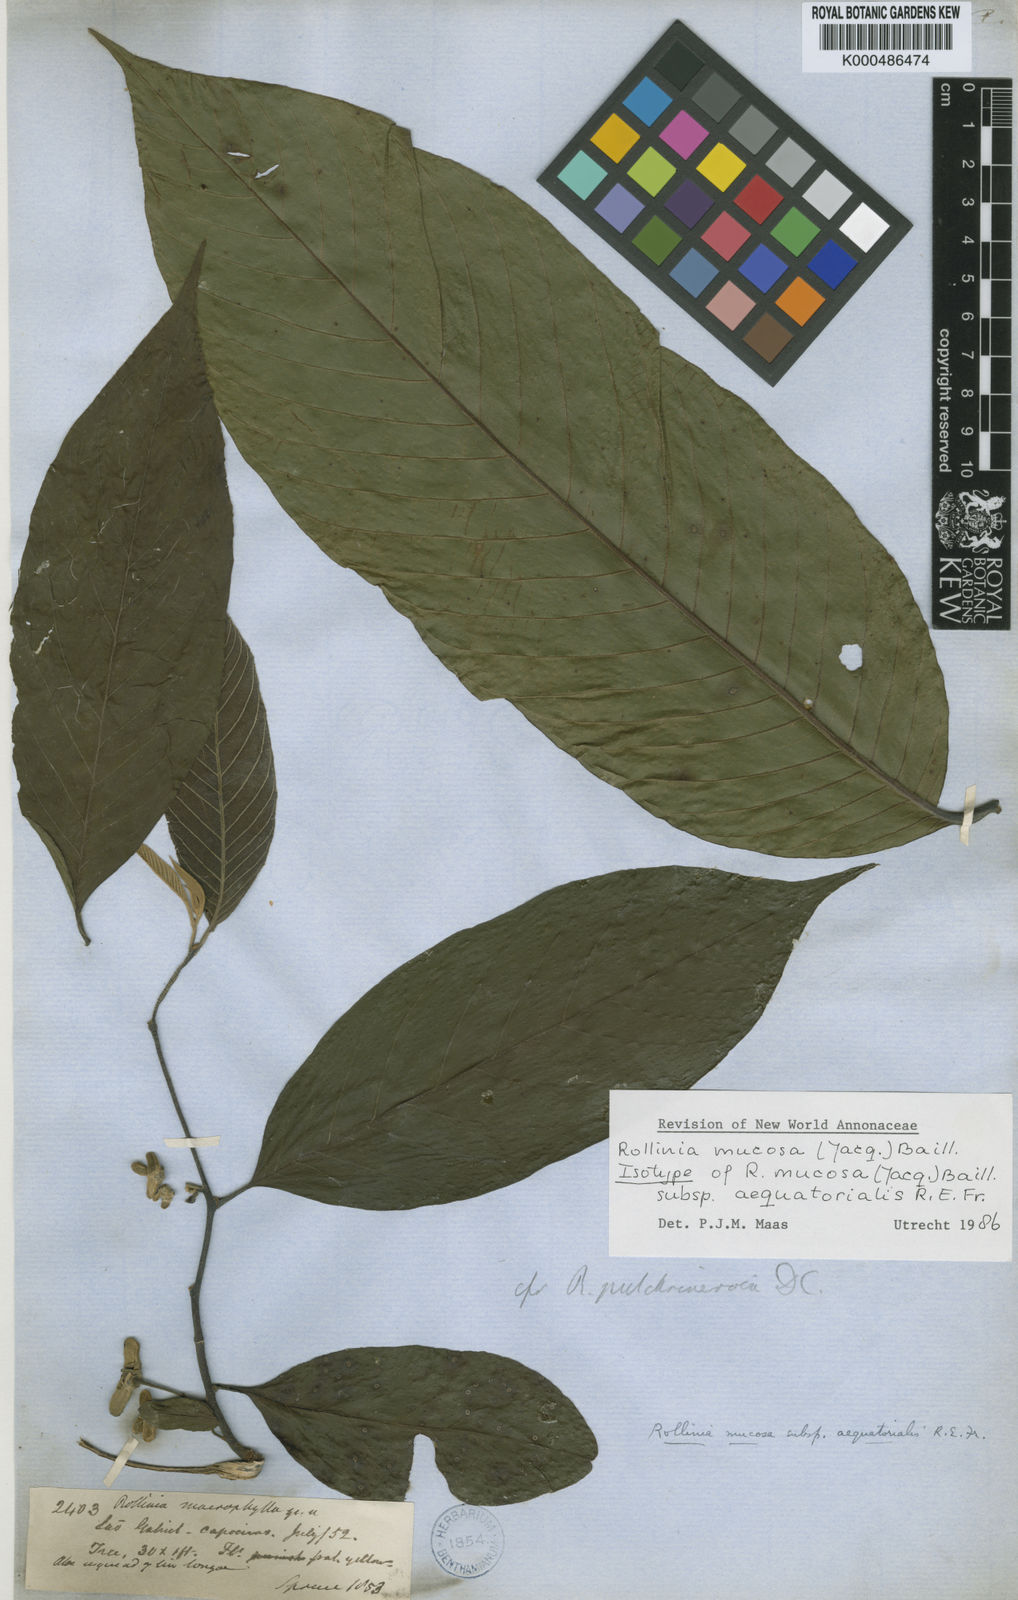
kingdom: Plantae
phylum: Tracheophyta
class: Magnoliopsida
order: Magnoliales
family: Annonaceae
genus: Annona
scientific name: Annona mucosa
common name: Sugar apple
